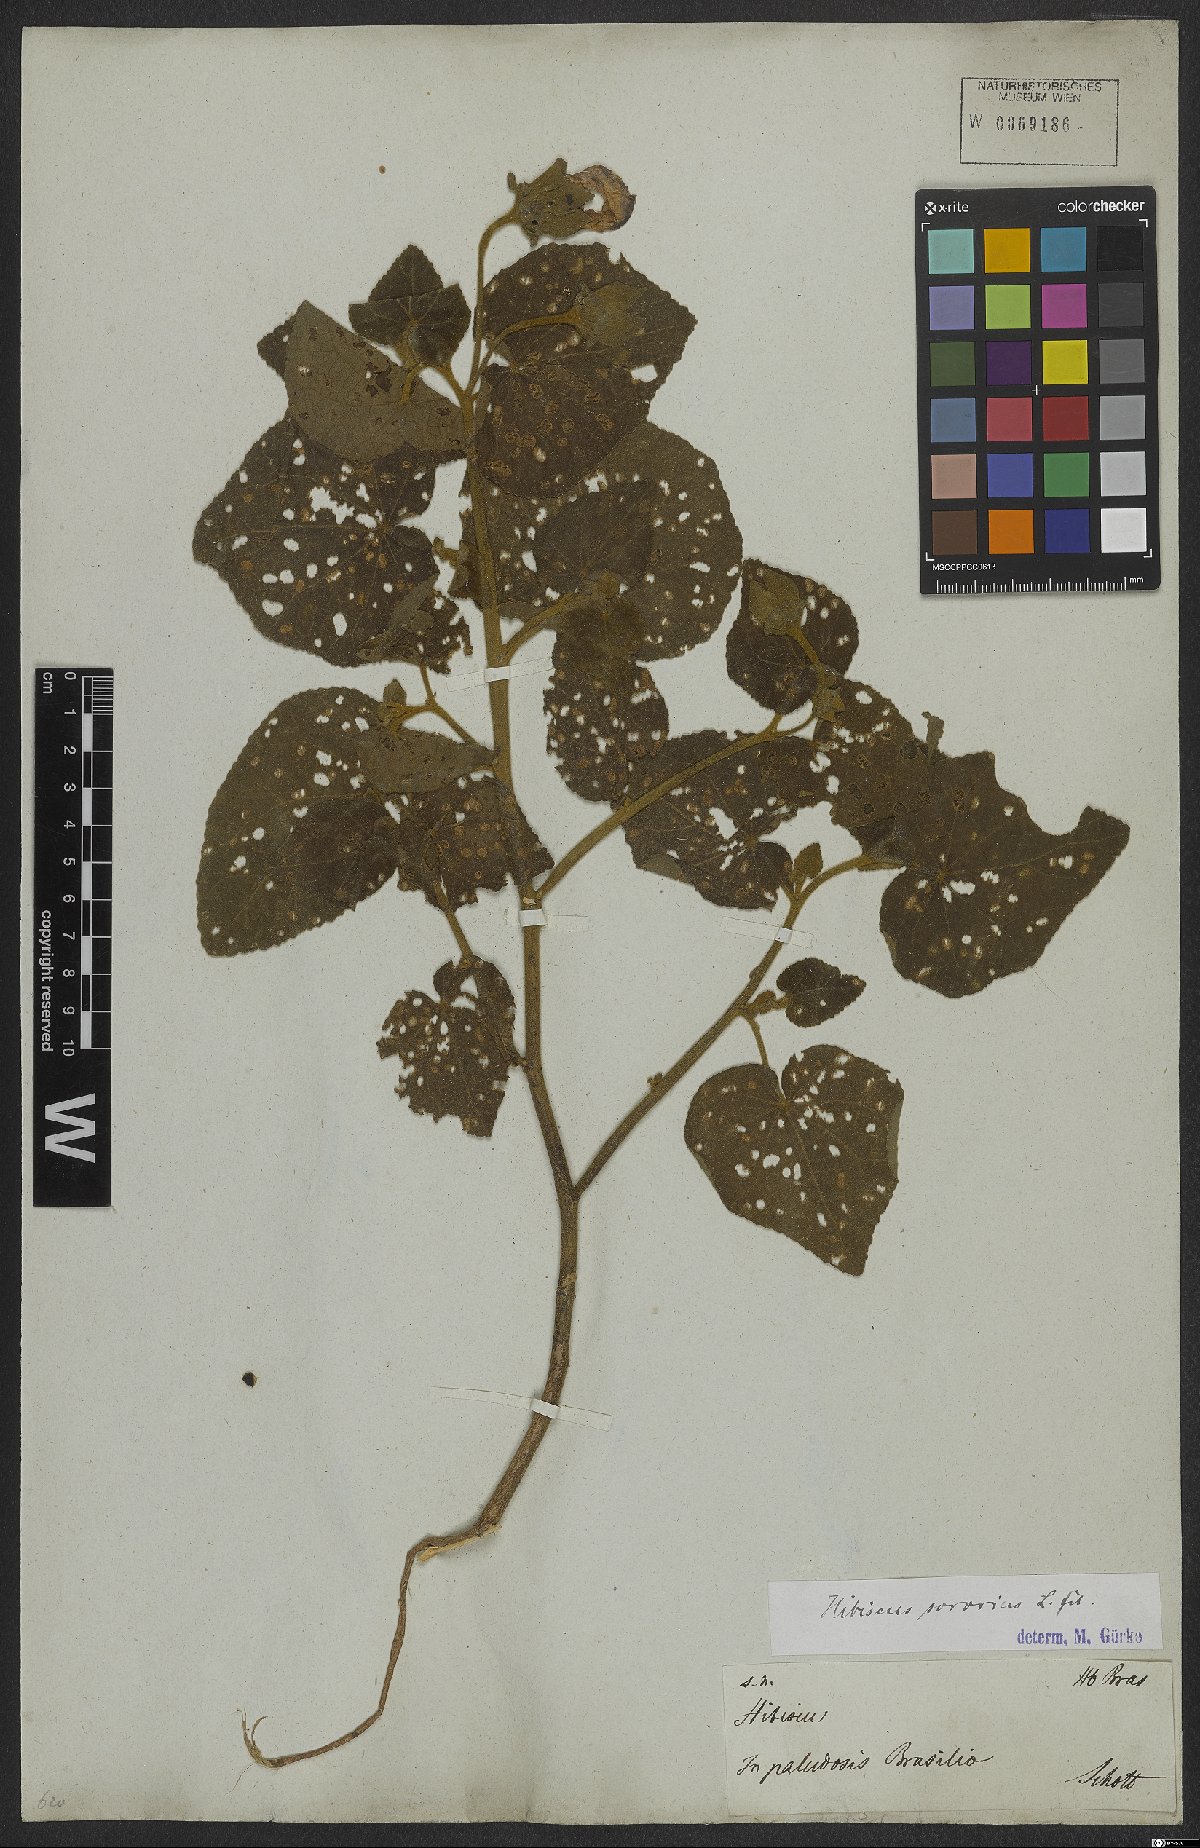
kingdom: Plantae
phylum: Tracheophyta
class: Magnoliopsida
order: Malvales
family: Malvaceae
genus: Hibiscus
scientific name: Hibiscus sororius
